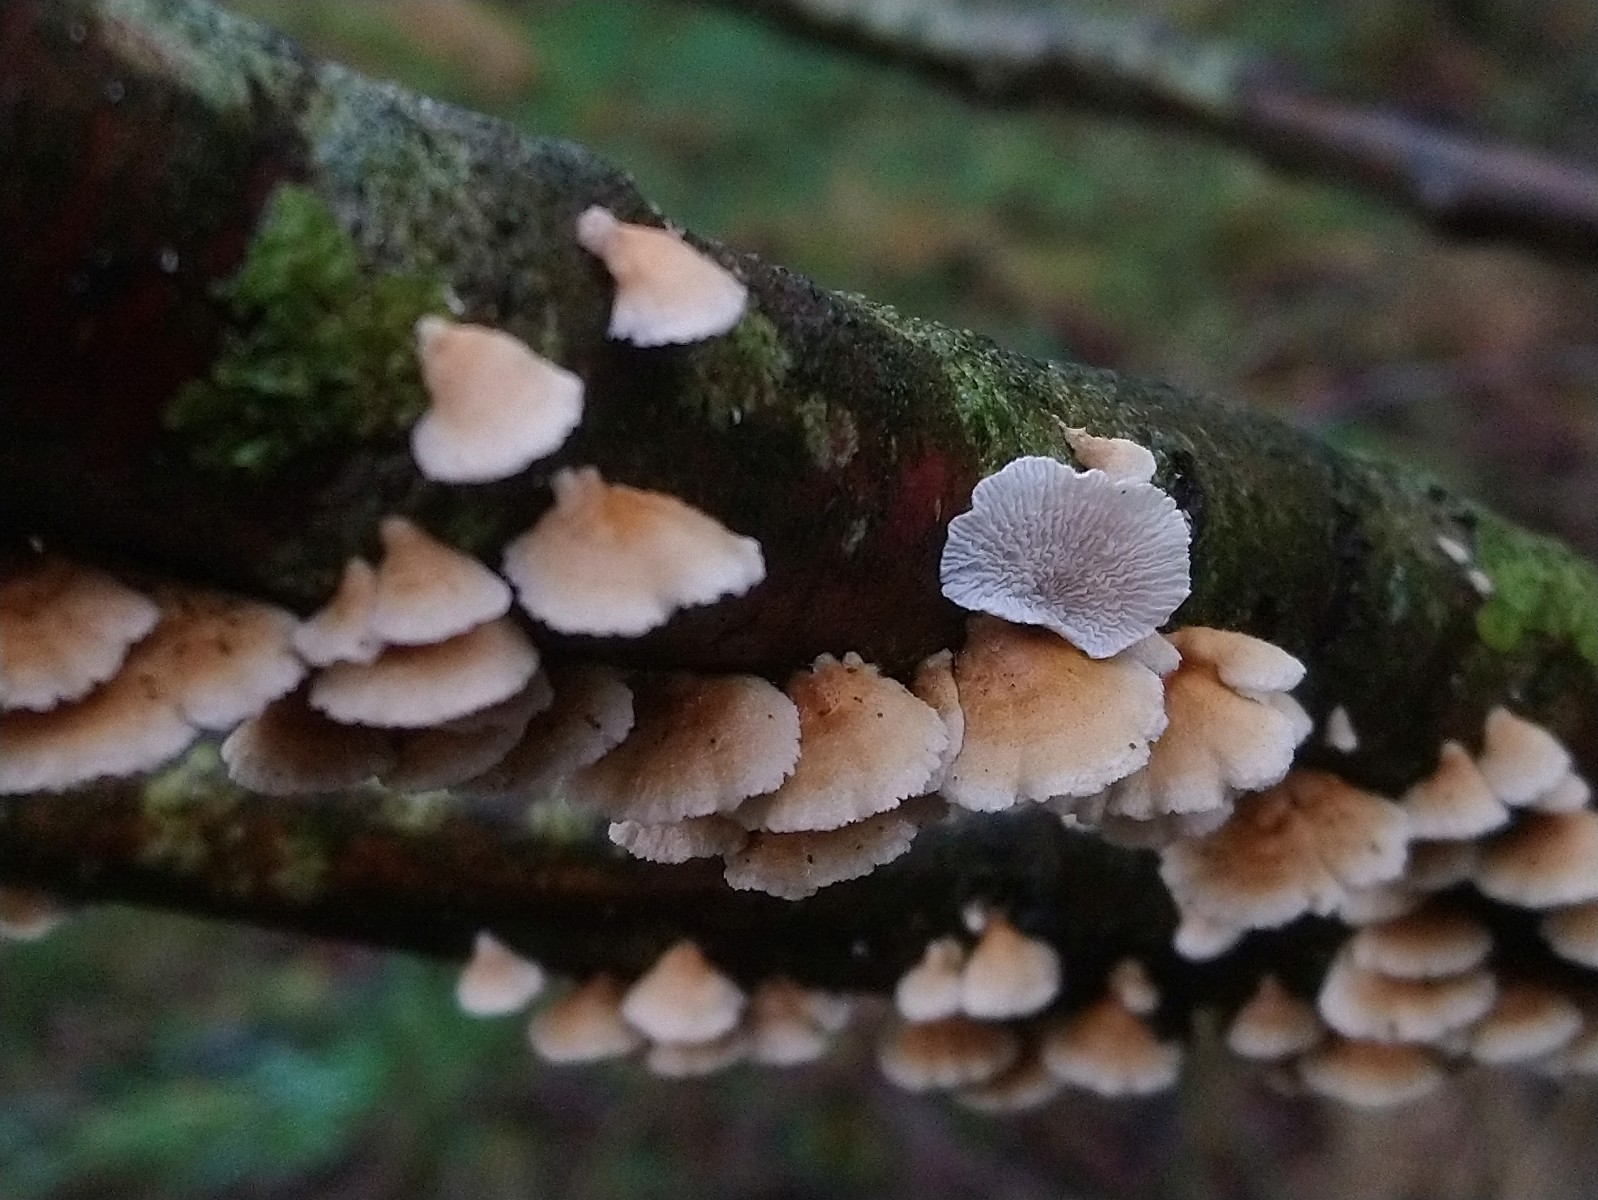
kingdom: Fungi
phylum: Basidiomycota
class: Agaricomycetes
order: Amylocorticiales
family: Amylocorticiaceae
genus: Plicaturopsis
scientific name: Plicaturopsis crispa
